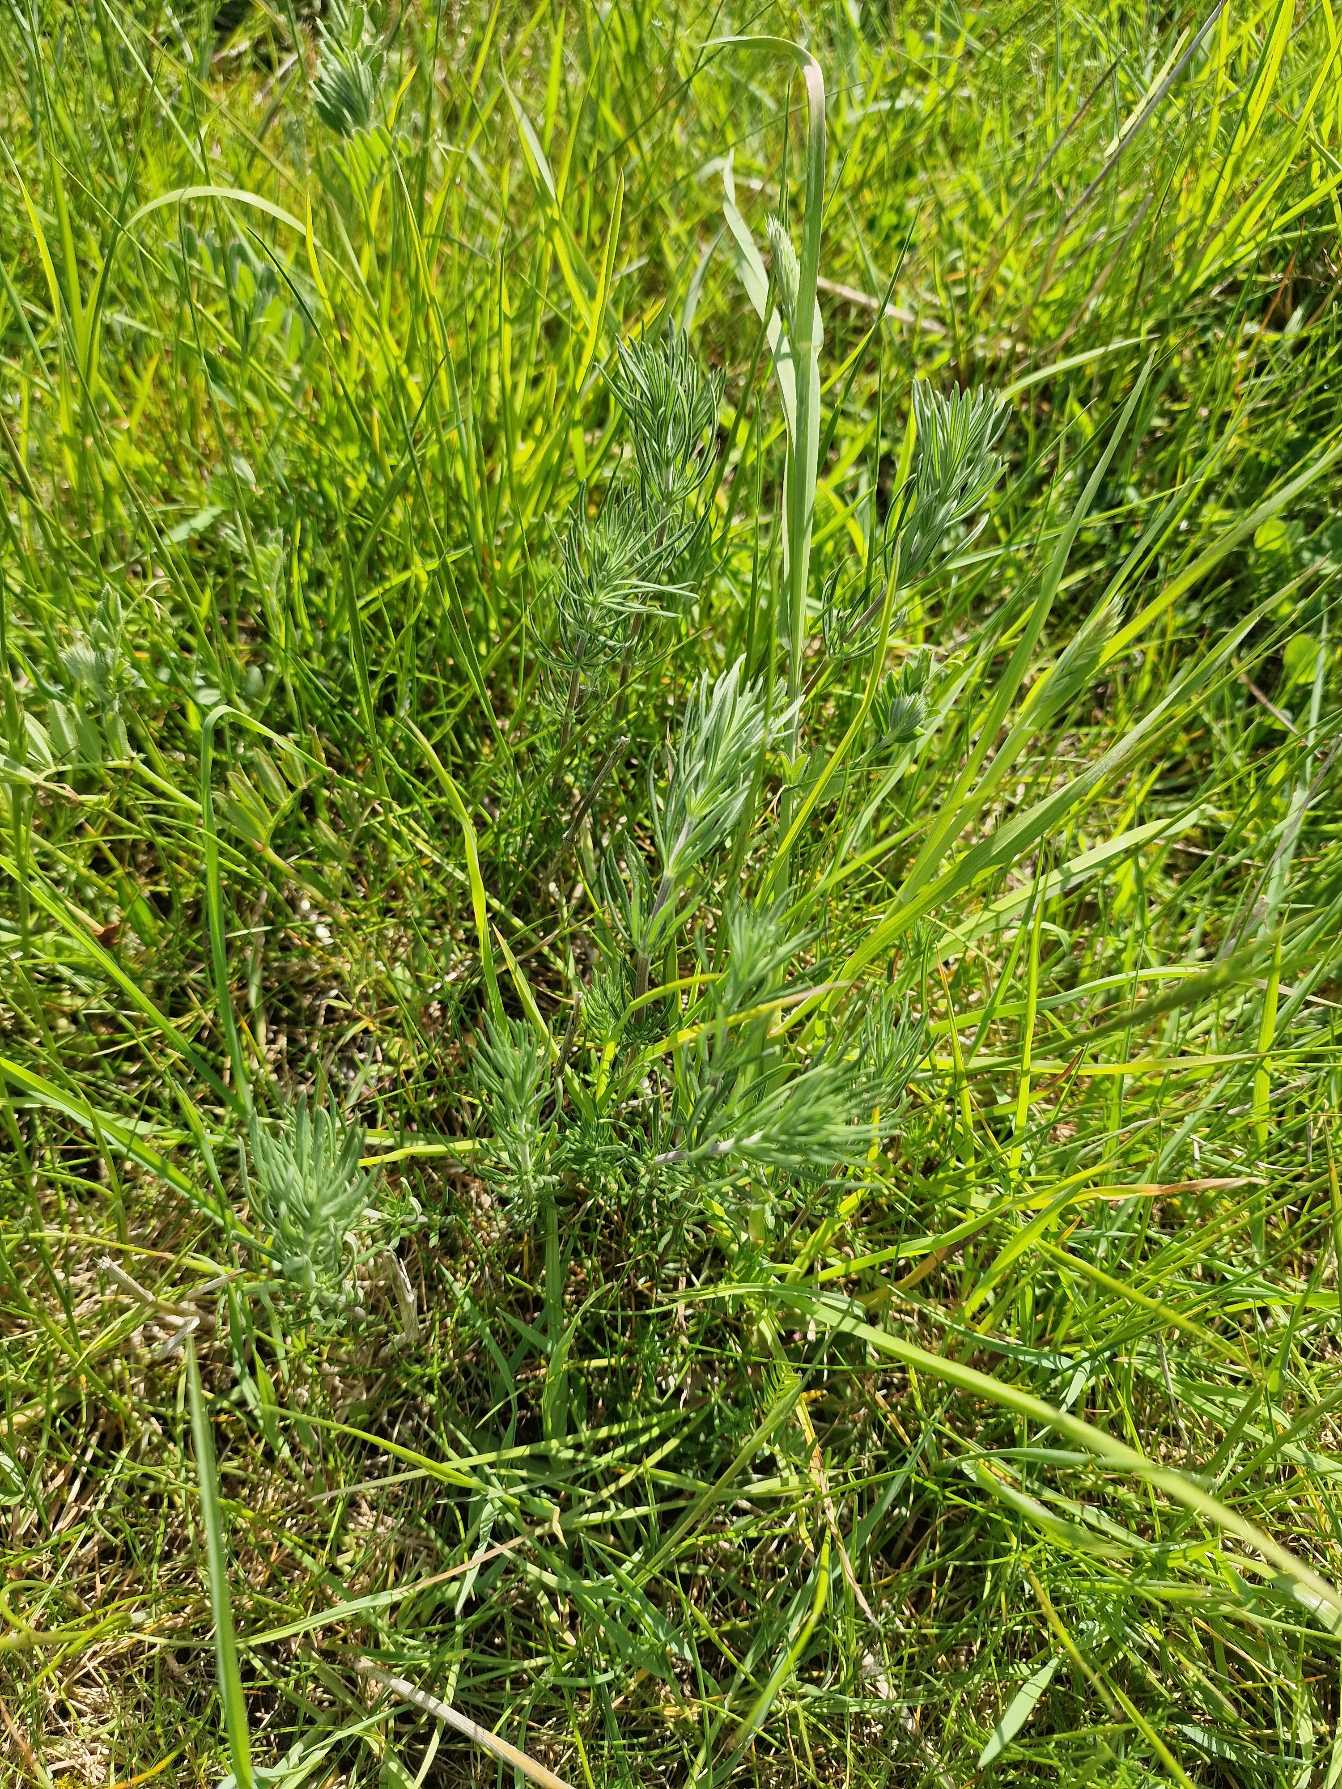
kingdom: Plantae
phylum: Tracheophyta
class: Magnoliopsida
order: Gentianales
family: Rubiaceae
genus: Galium
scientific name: Galium verum
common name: Gul snerre
